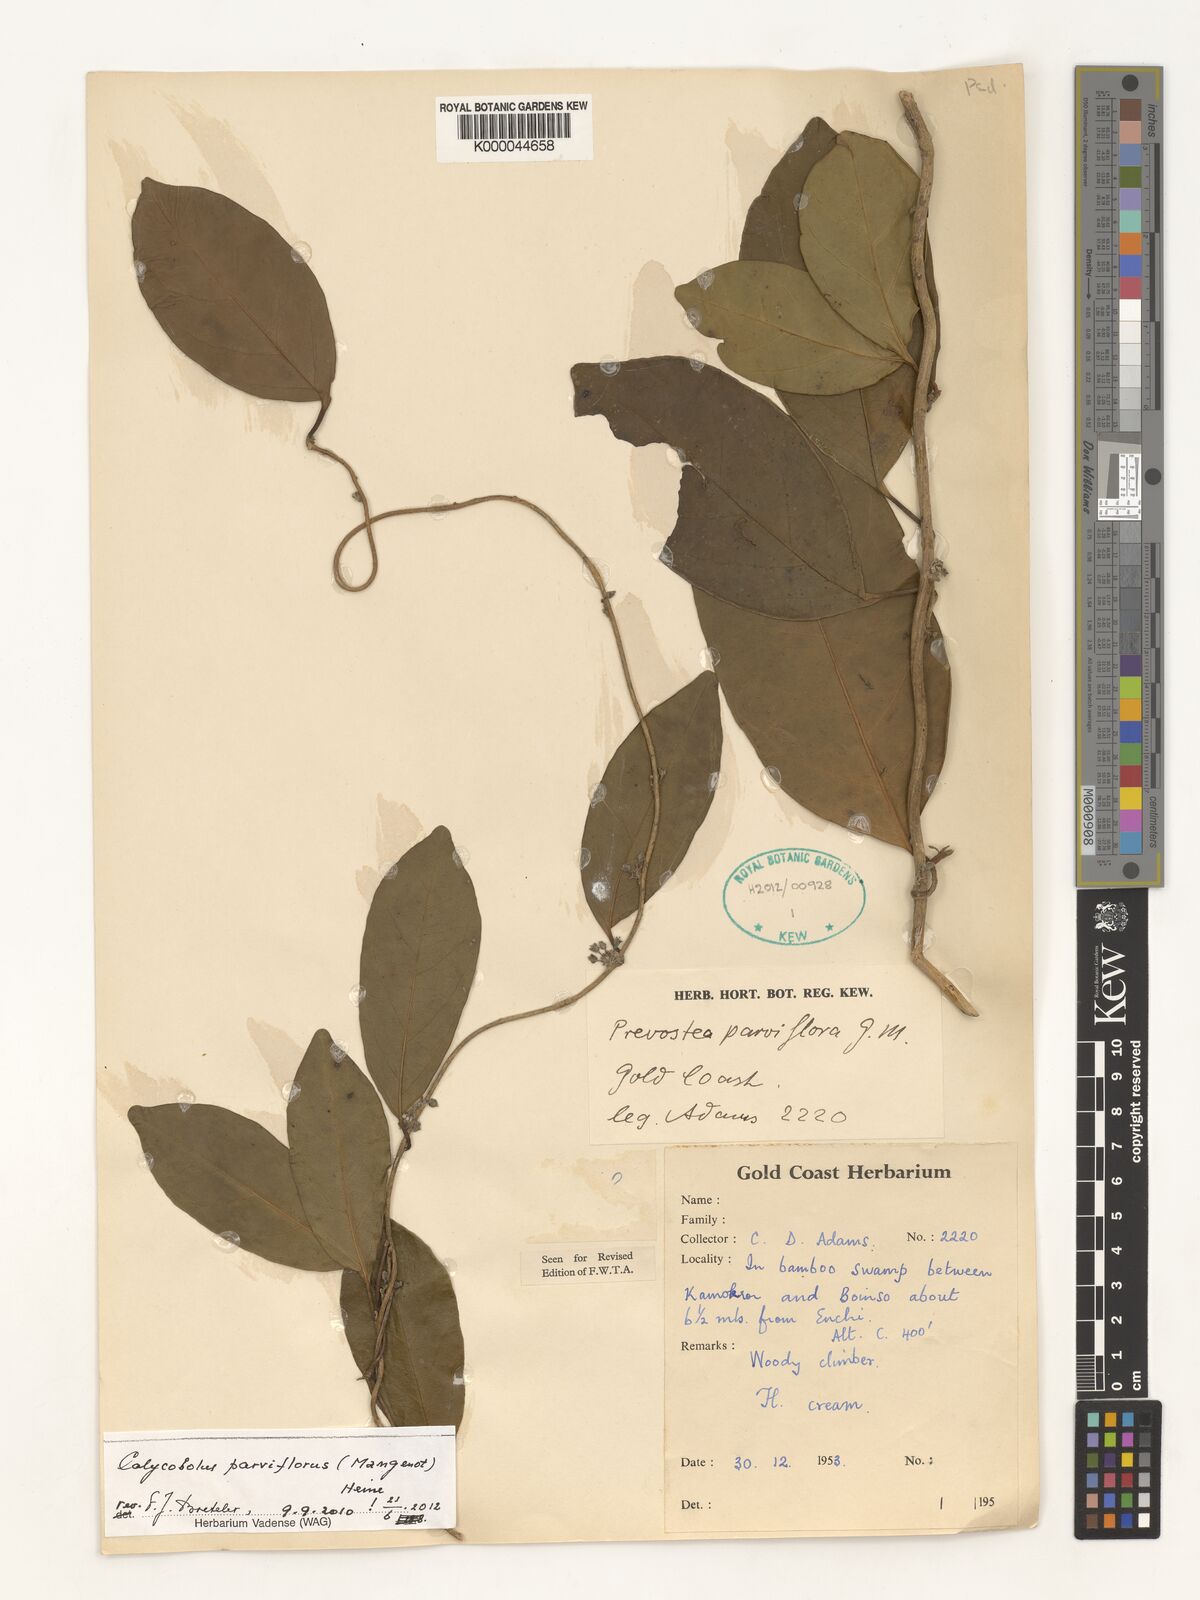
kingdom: Plantae
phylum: Tracheophyta
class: Magnoliopsida
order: Solanales
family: Convolvulaceae
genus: Calycobolus
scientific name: Calycobolus parviflorus
